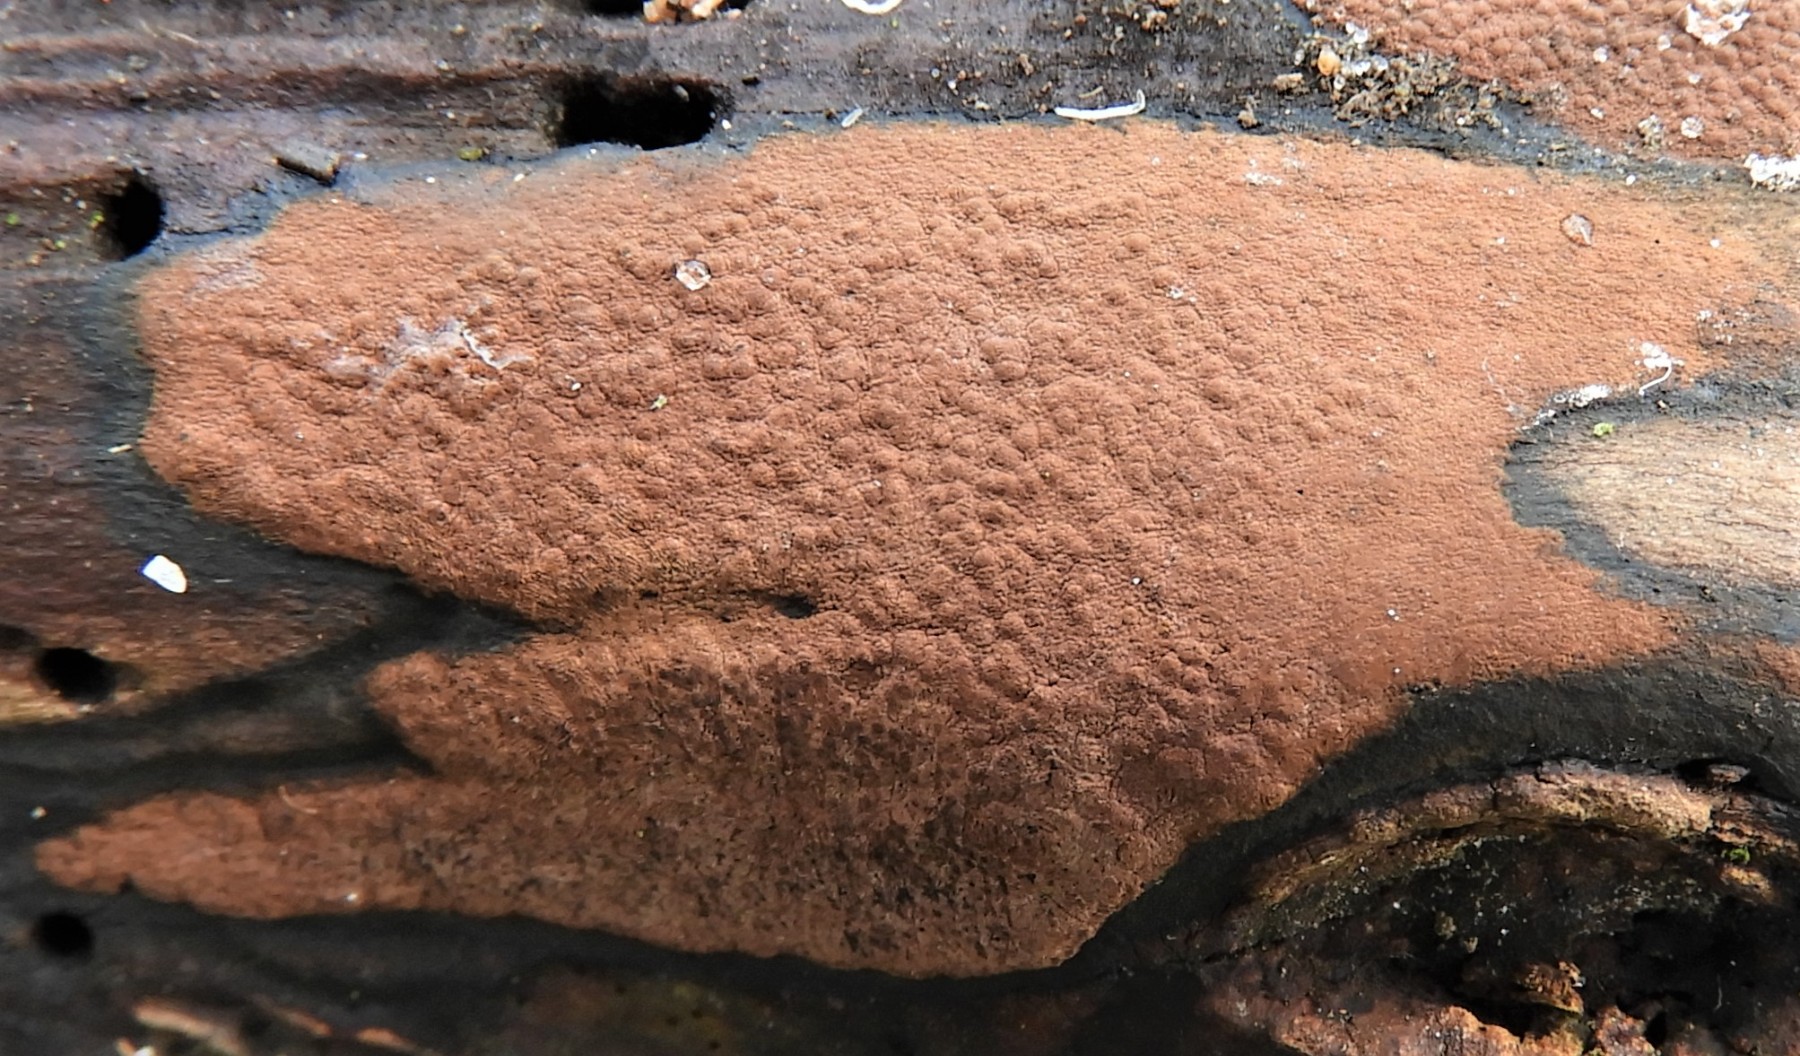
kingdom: Fungi
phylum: Ascomycota
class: Sordariomycetes
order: Xylariales
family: Hypoxylaceae
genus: Hypoxylon
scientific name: Hypoxylon petriniae
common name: nedsænket kulbær
